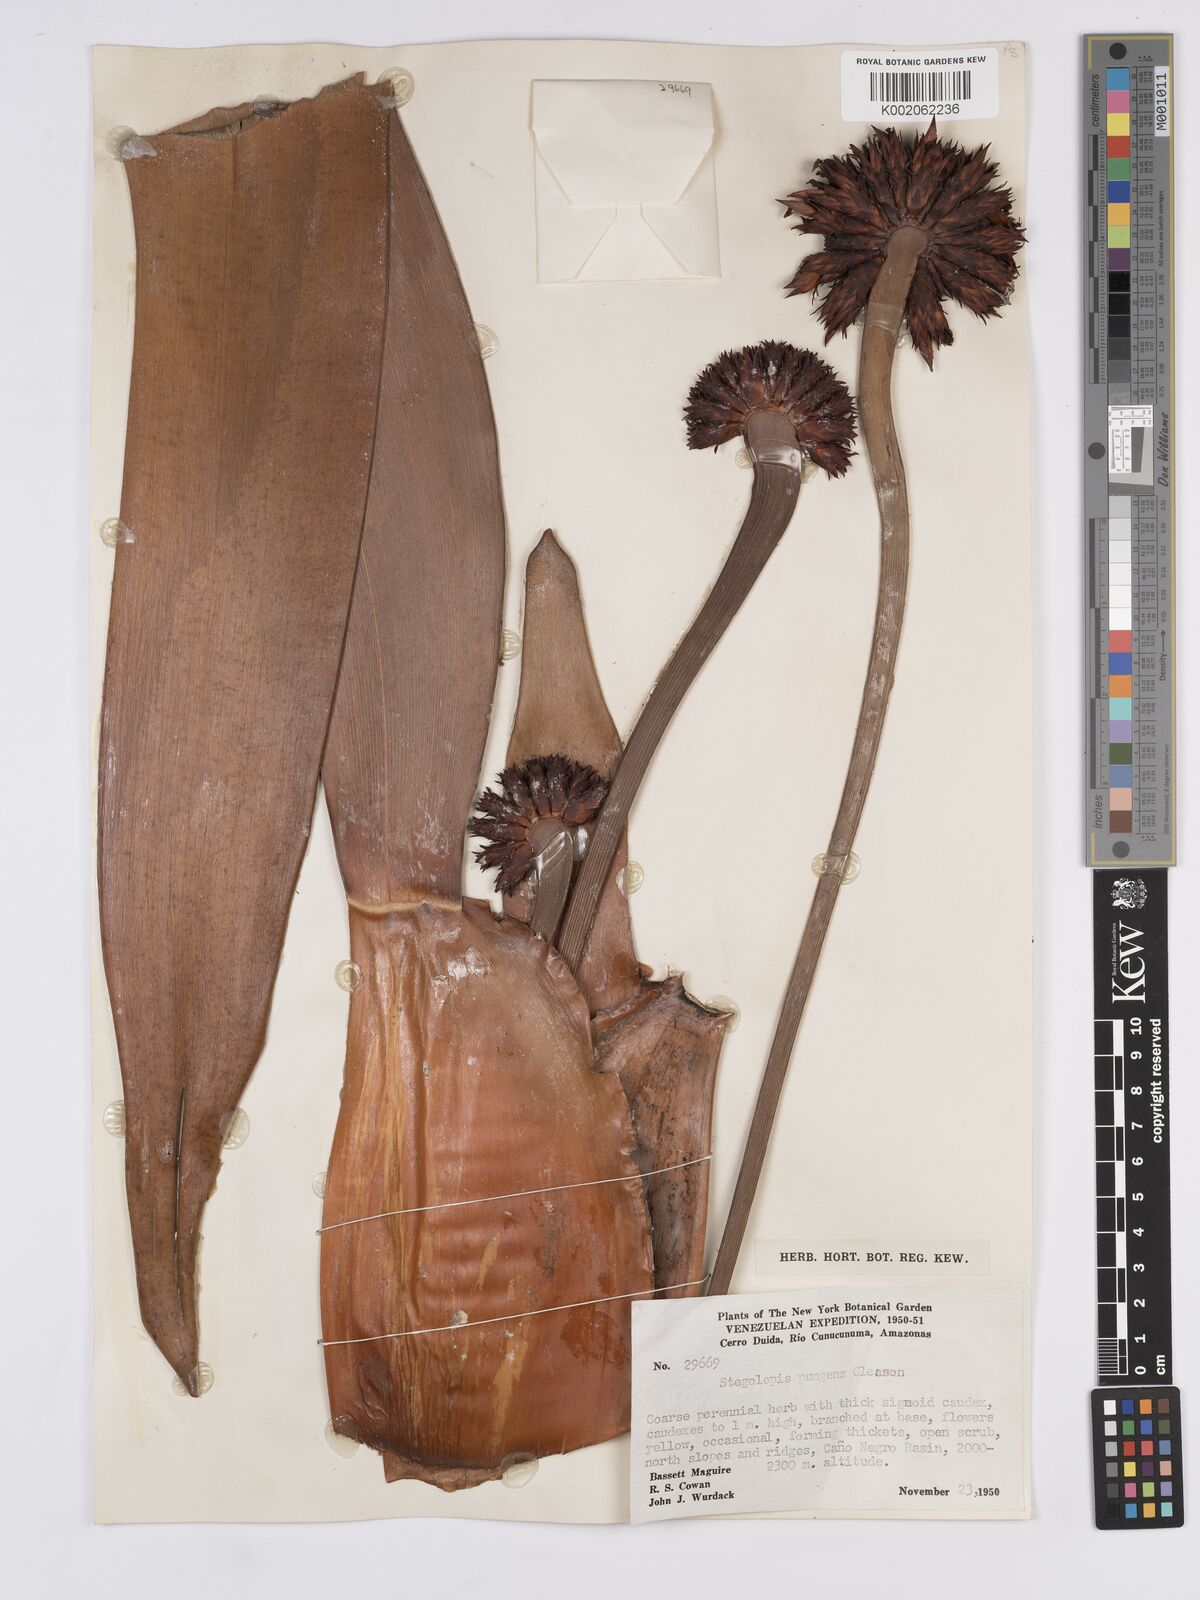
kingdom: Plantae
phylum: Tracheophyta
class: Liliopsida
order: Poales
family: Rapateaceae
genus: Stegolepis
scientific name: Stegolepis pungens
